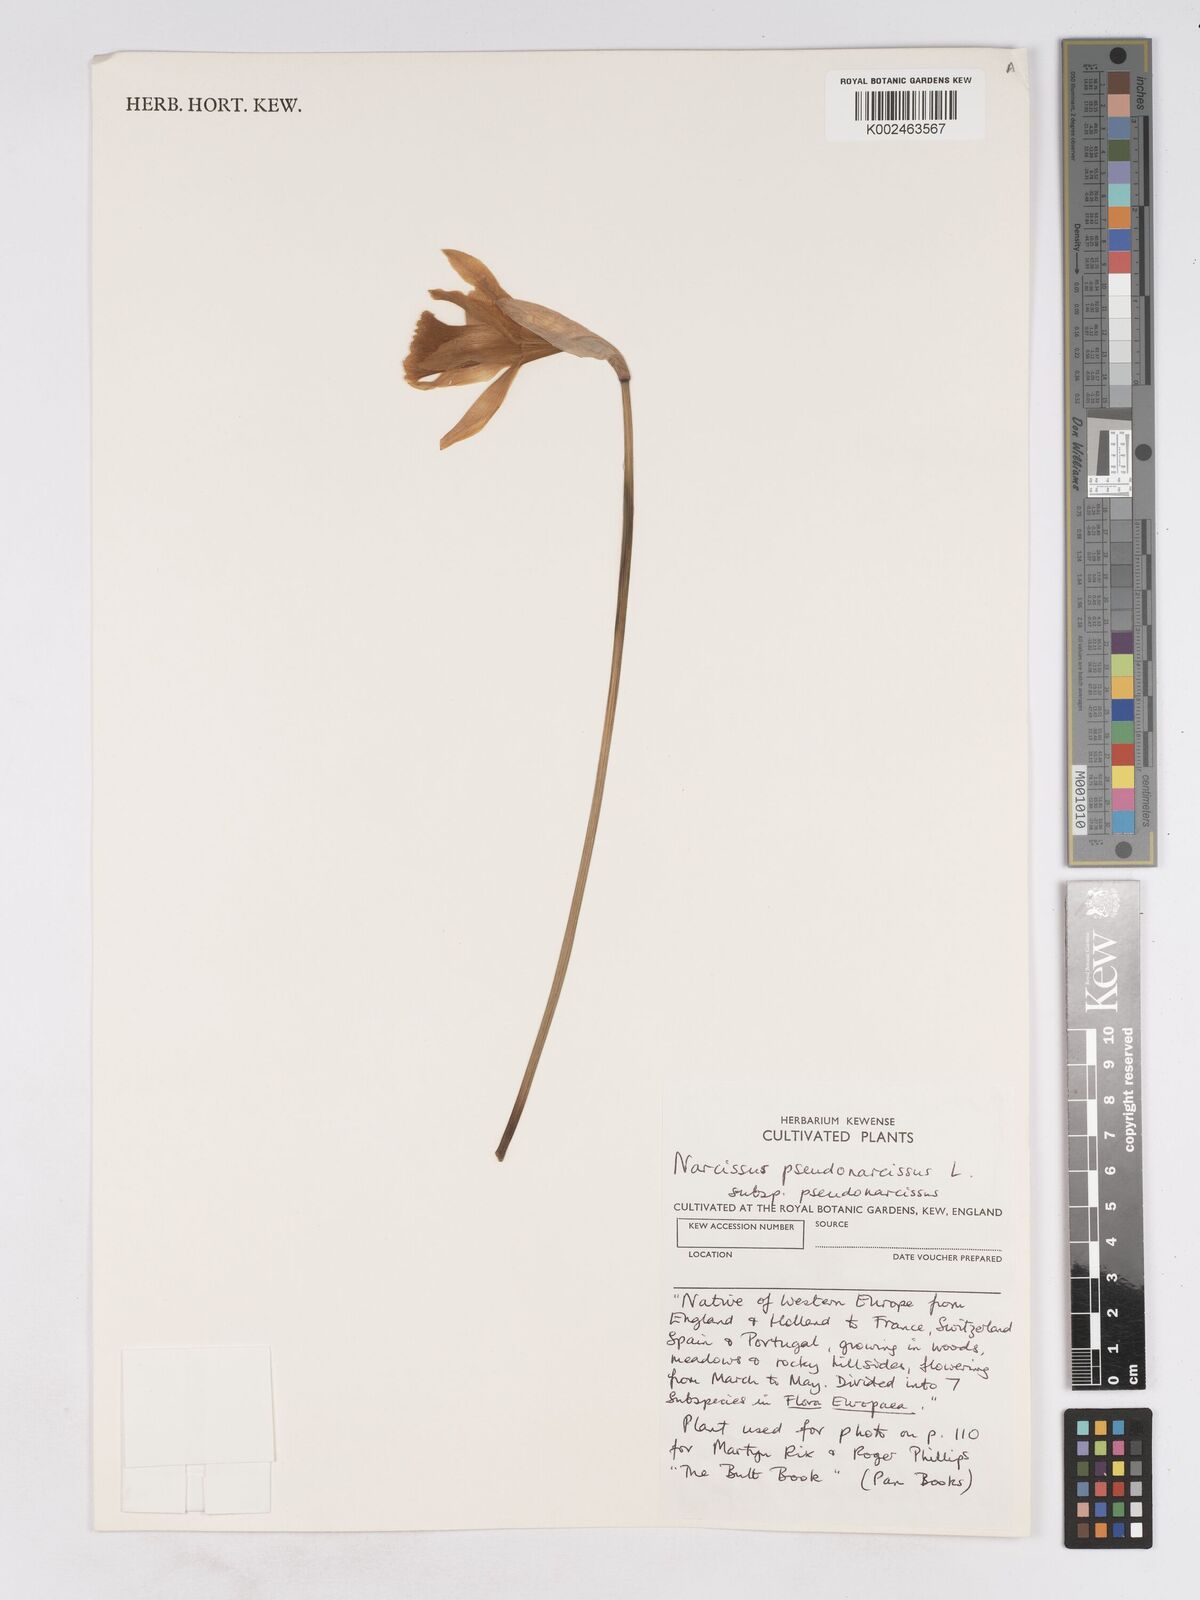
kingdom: Plantae
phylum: Tracheophyta
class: Liliopsida
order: Asparagales
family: Amaryllidaceae
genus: Narcissus
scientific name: Narcissus pseudonarcissus
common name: Daffodil
